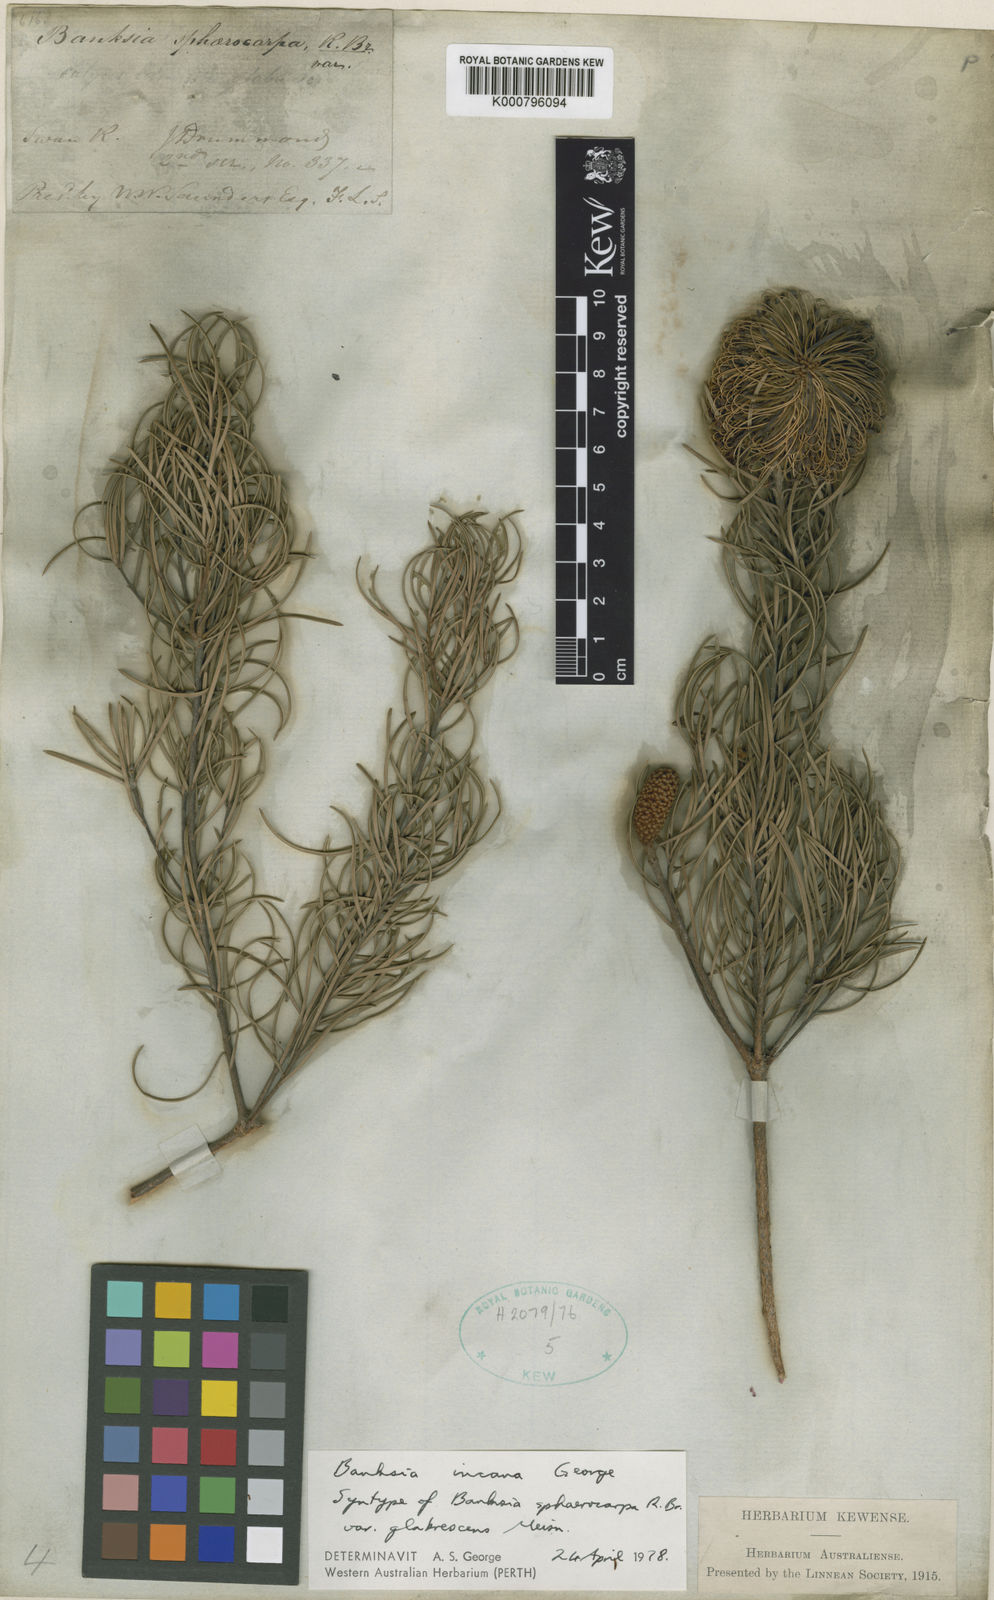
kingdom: Plantae
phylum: Tracheophyta
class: Magnoliopsida
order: Proteales
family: Proteaceae
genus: Banksia
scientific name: Banksia incana
